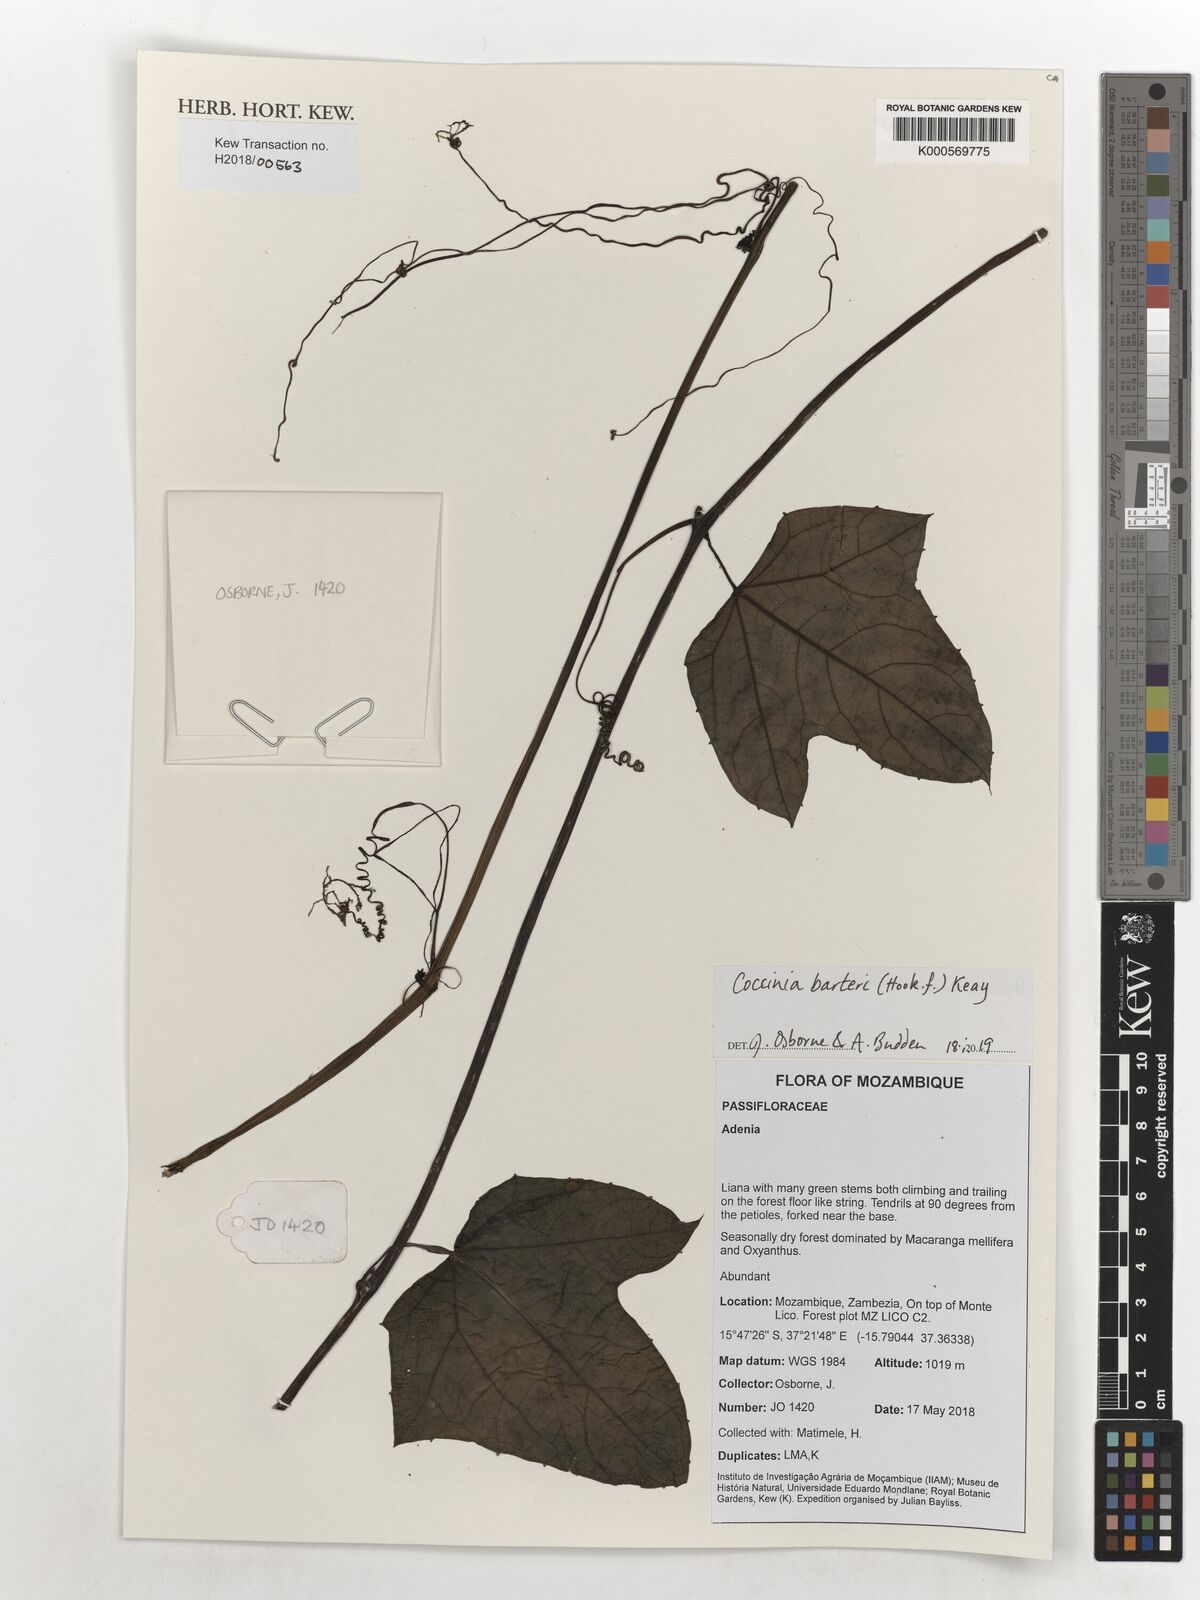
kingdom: Plantae
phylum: Tracheophyta
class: Magnoliopsida
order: Cucurbitales
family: Cucurbitaceae
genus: Coccinia
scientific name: Coccinia barteri
